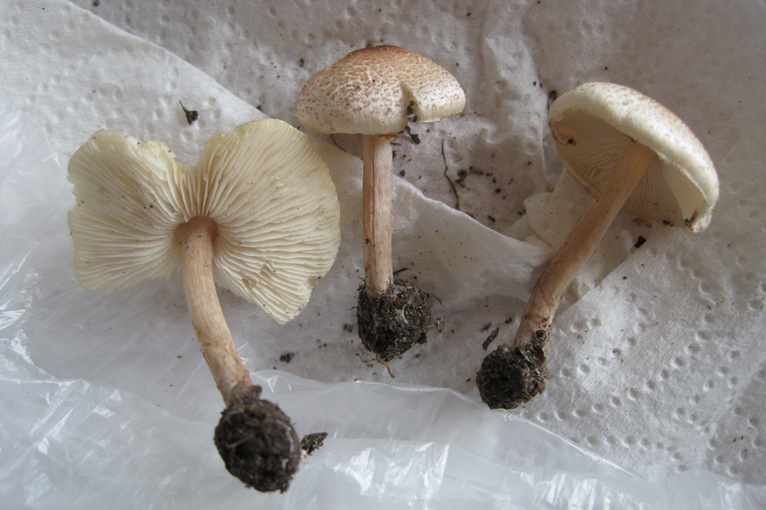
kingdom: Fungi
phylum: Basidiomycota
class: Agaricomycetes
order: Agaricales
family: Agaricaceae
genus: Lepiota
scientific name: Lepiota cristata
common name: stinkende parasolhat
